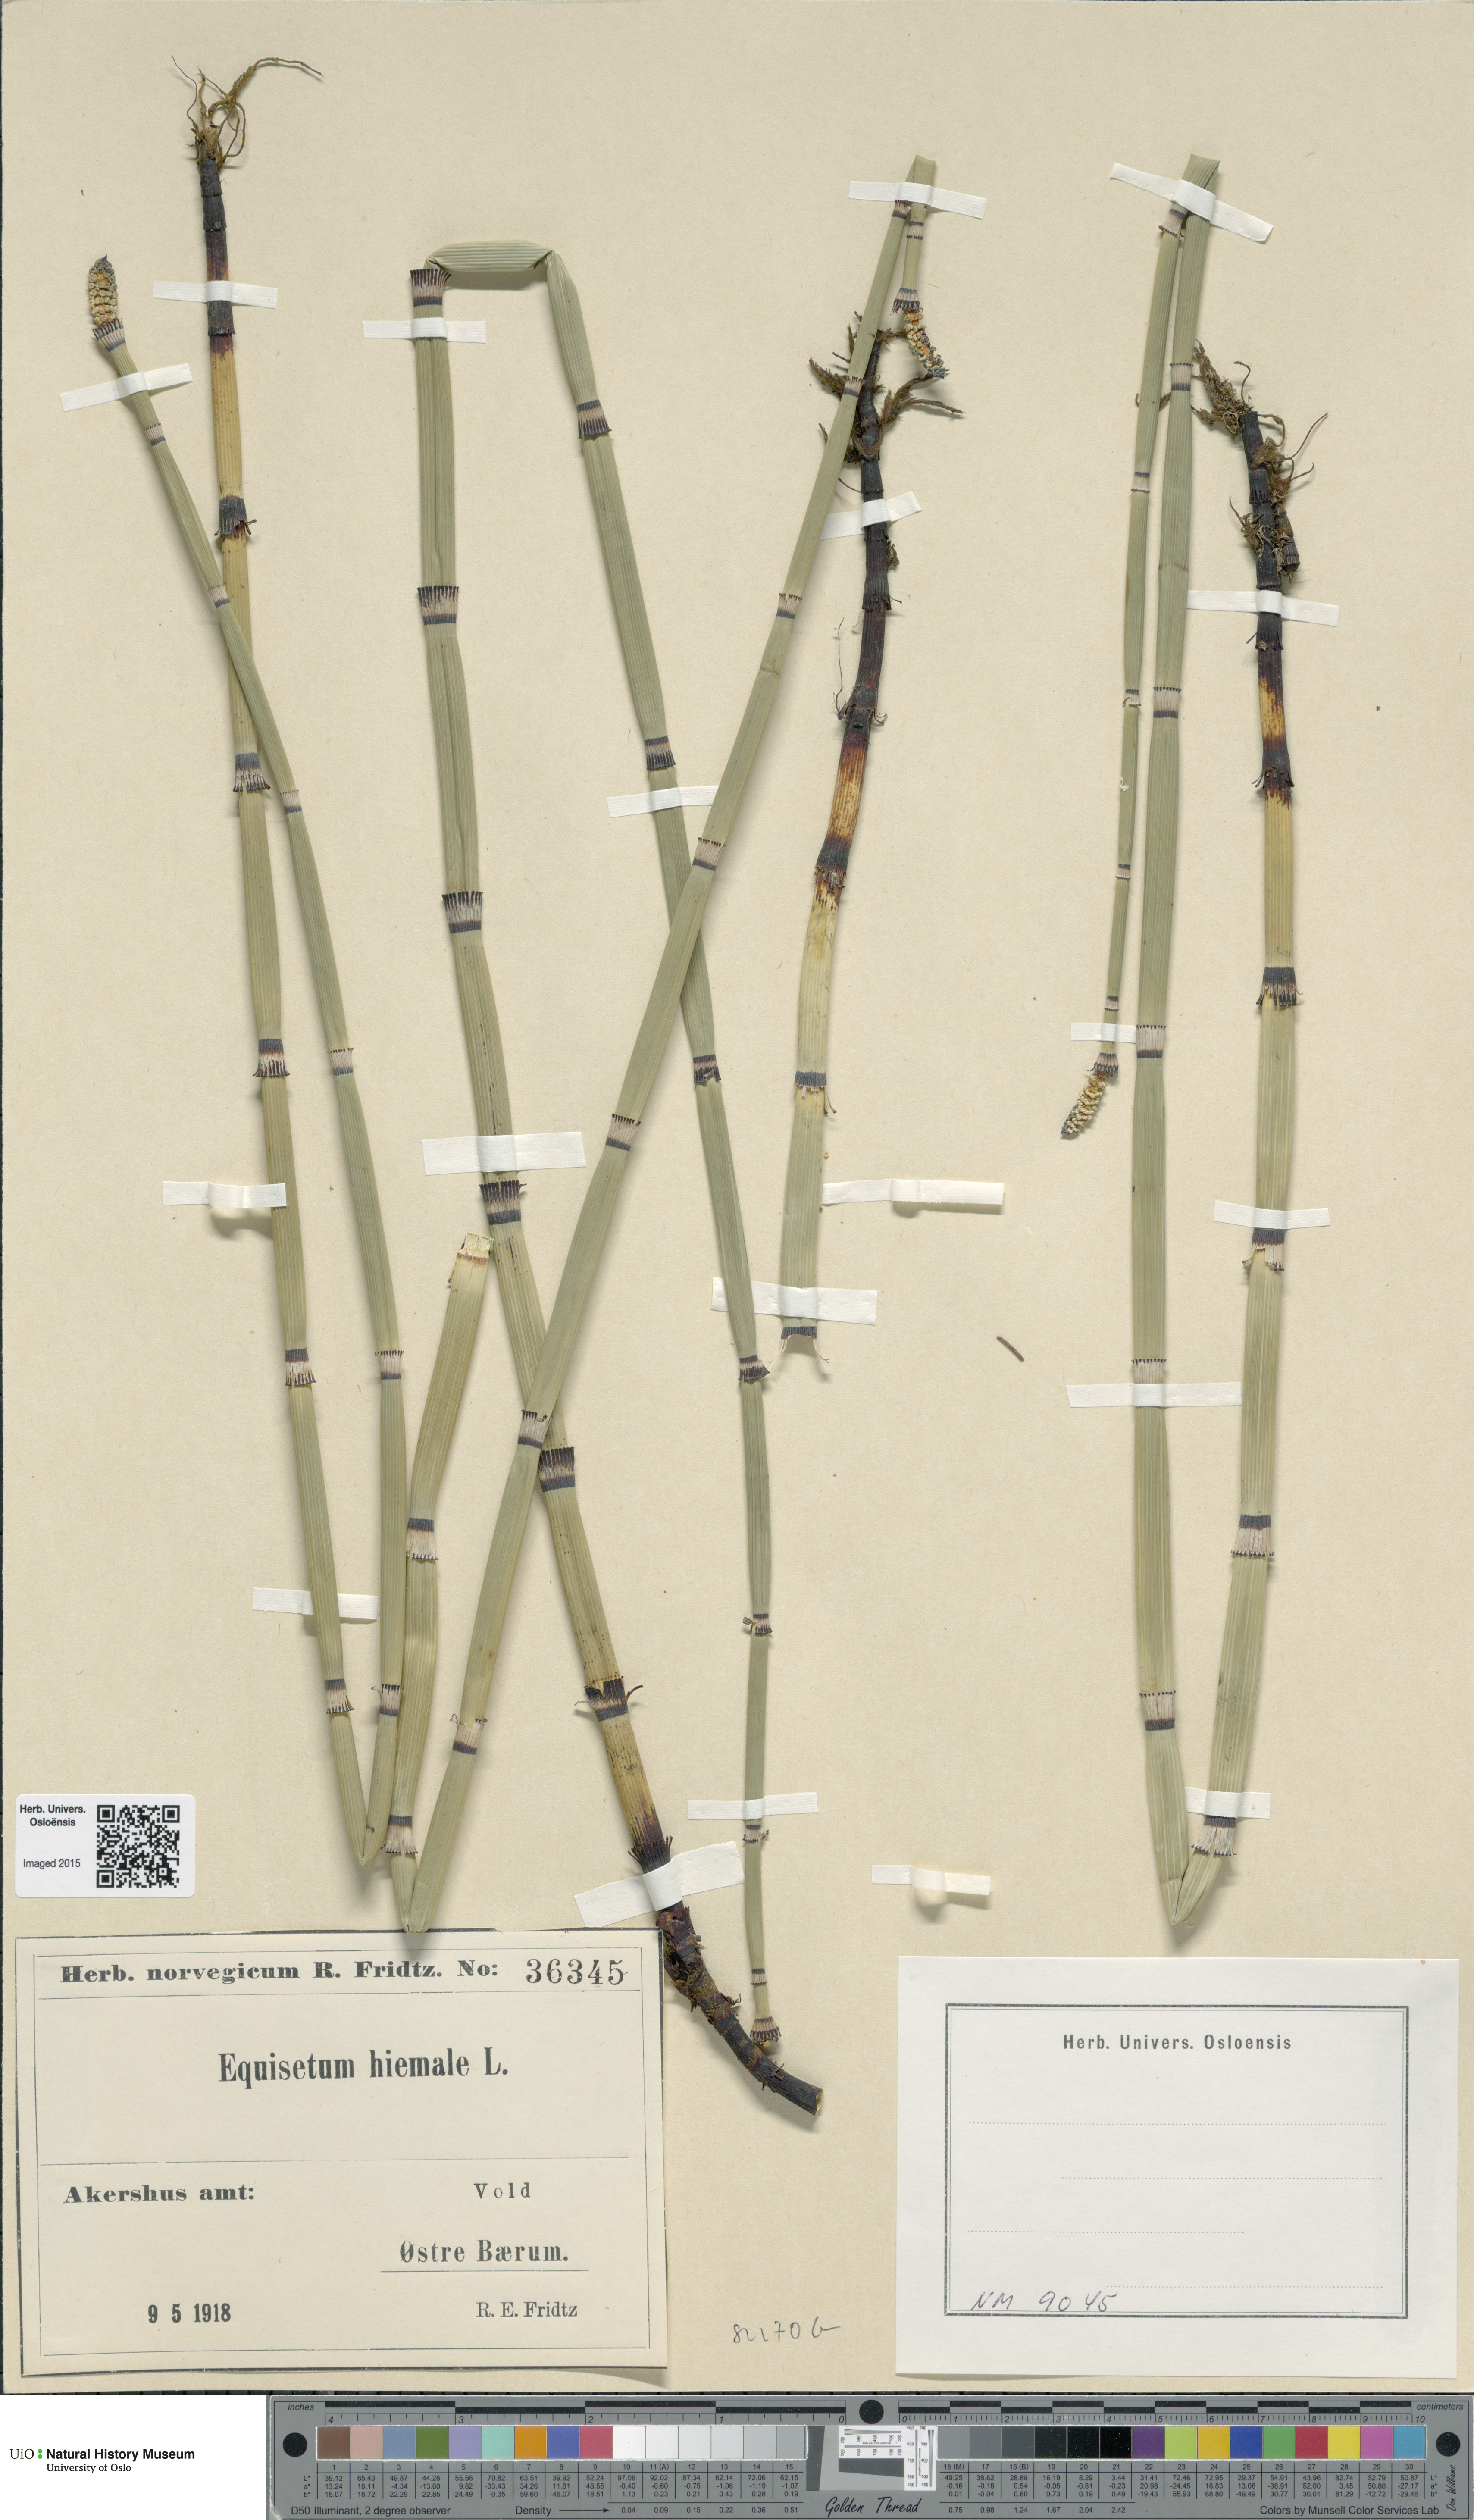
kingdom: Plantae
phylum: Tracheophyta
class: Polypodiopsida
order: Equisetales
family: Equisetaceae
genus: Equisetum
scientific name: Equisetum hyemale
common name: Rough horsetail
